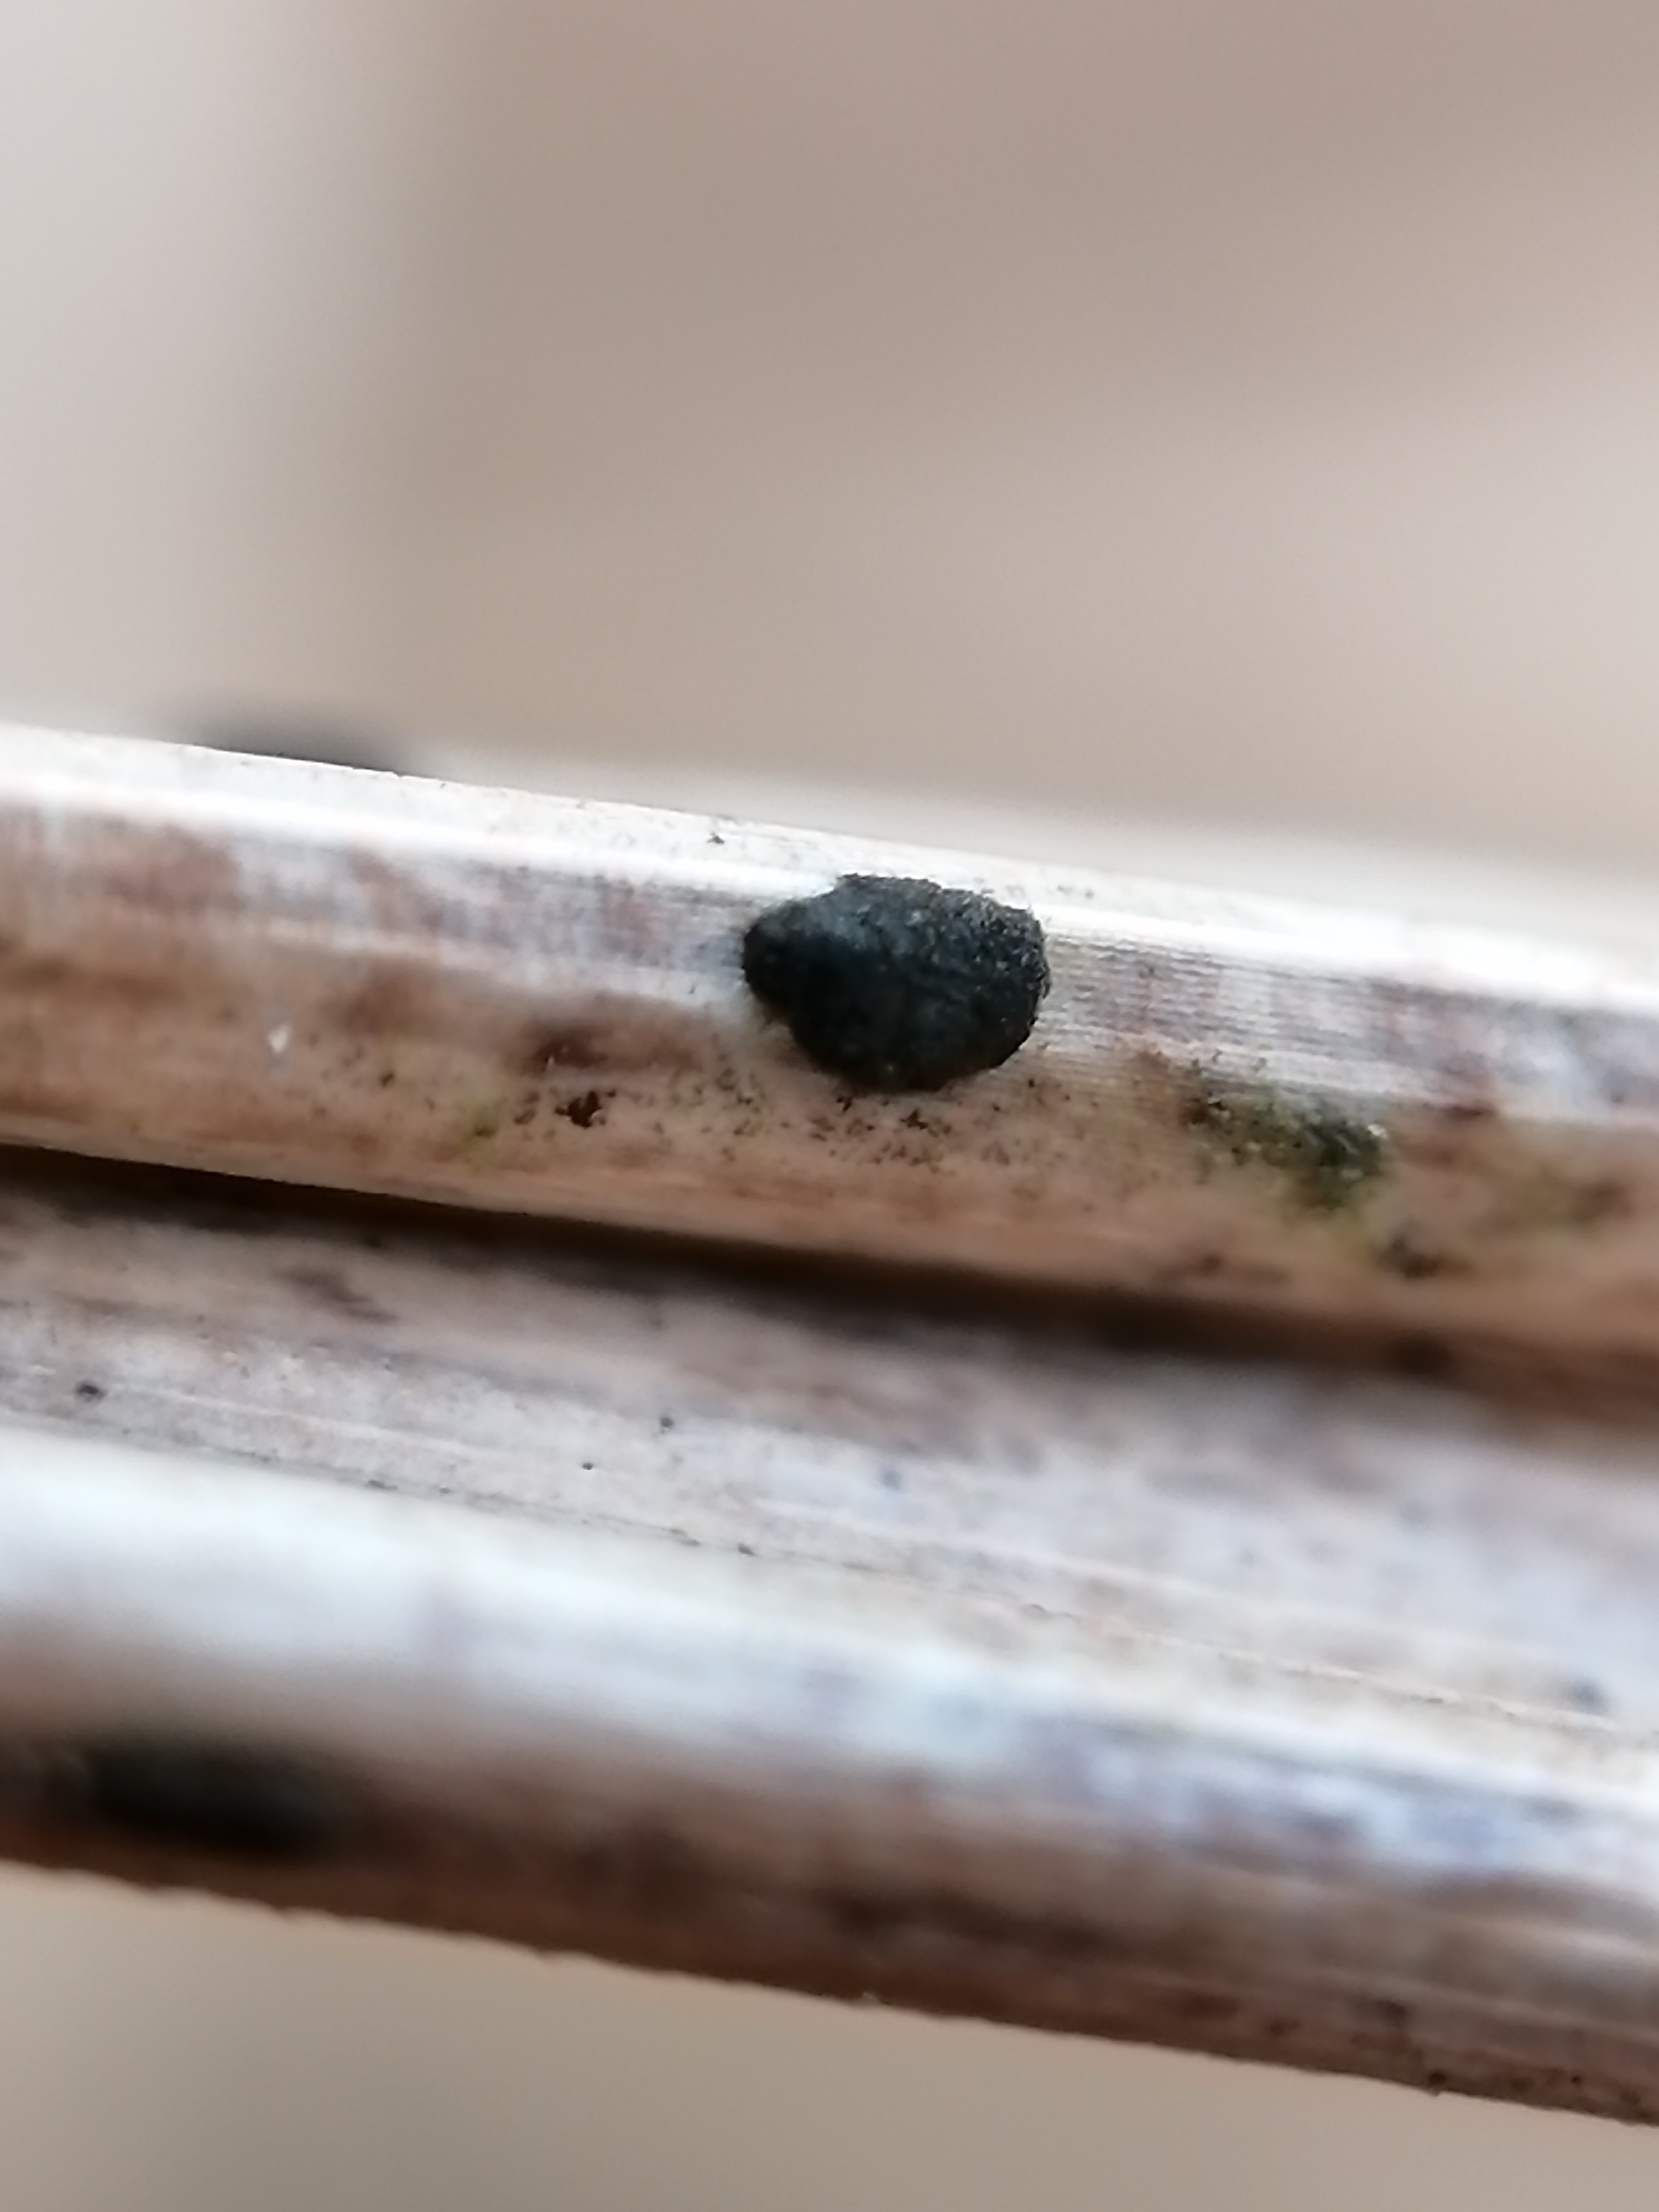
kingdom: Fungi
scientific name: Fungi
